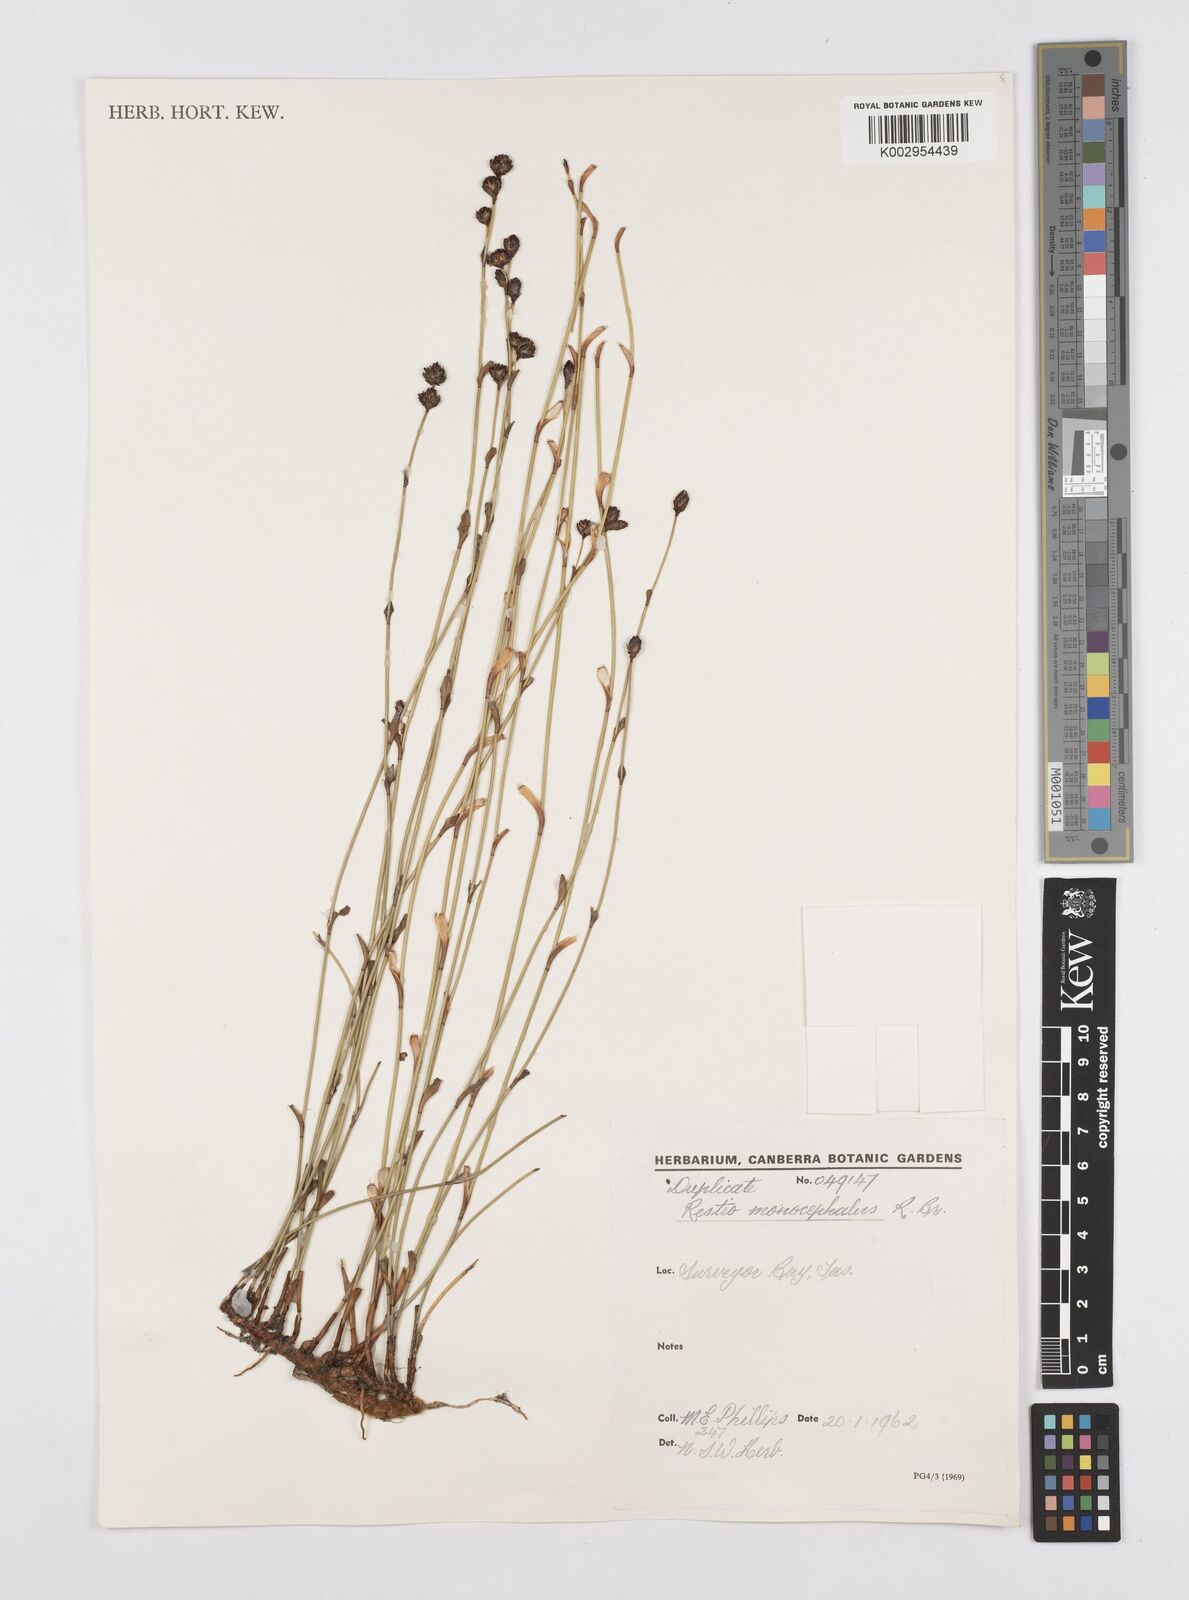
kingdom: Plantae
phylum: Tracheophyta
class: Liliopsida
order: Poales
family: Restionaceae
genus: Chordifex
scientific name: Chordifex hookeri
